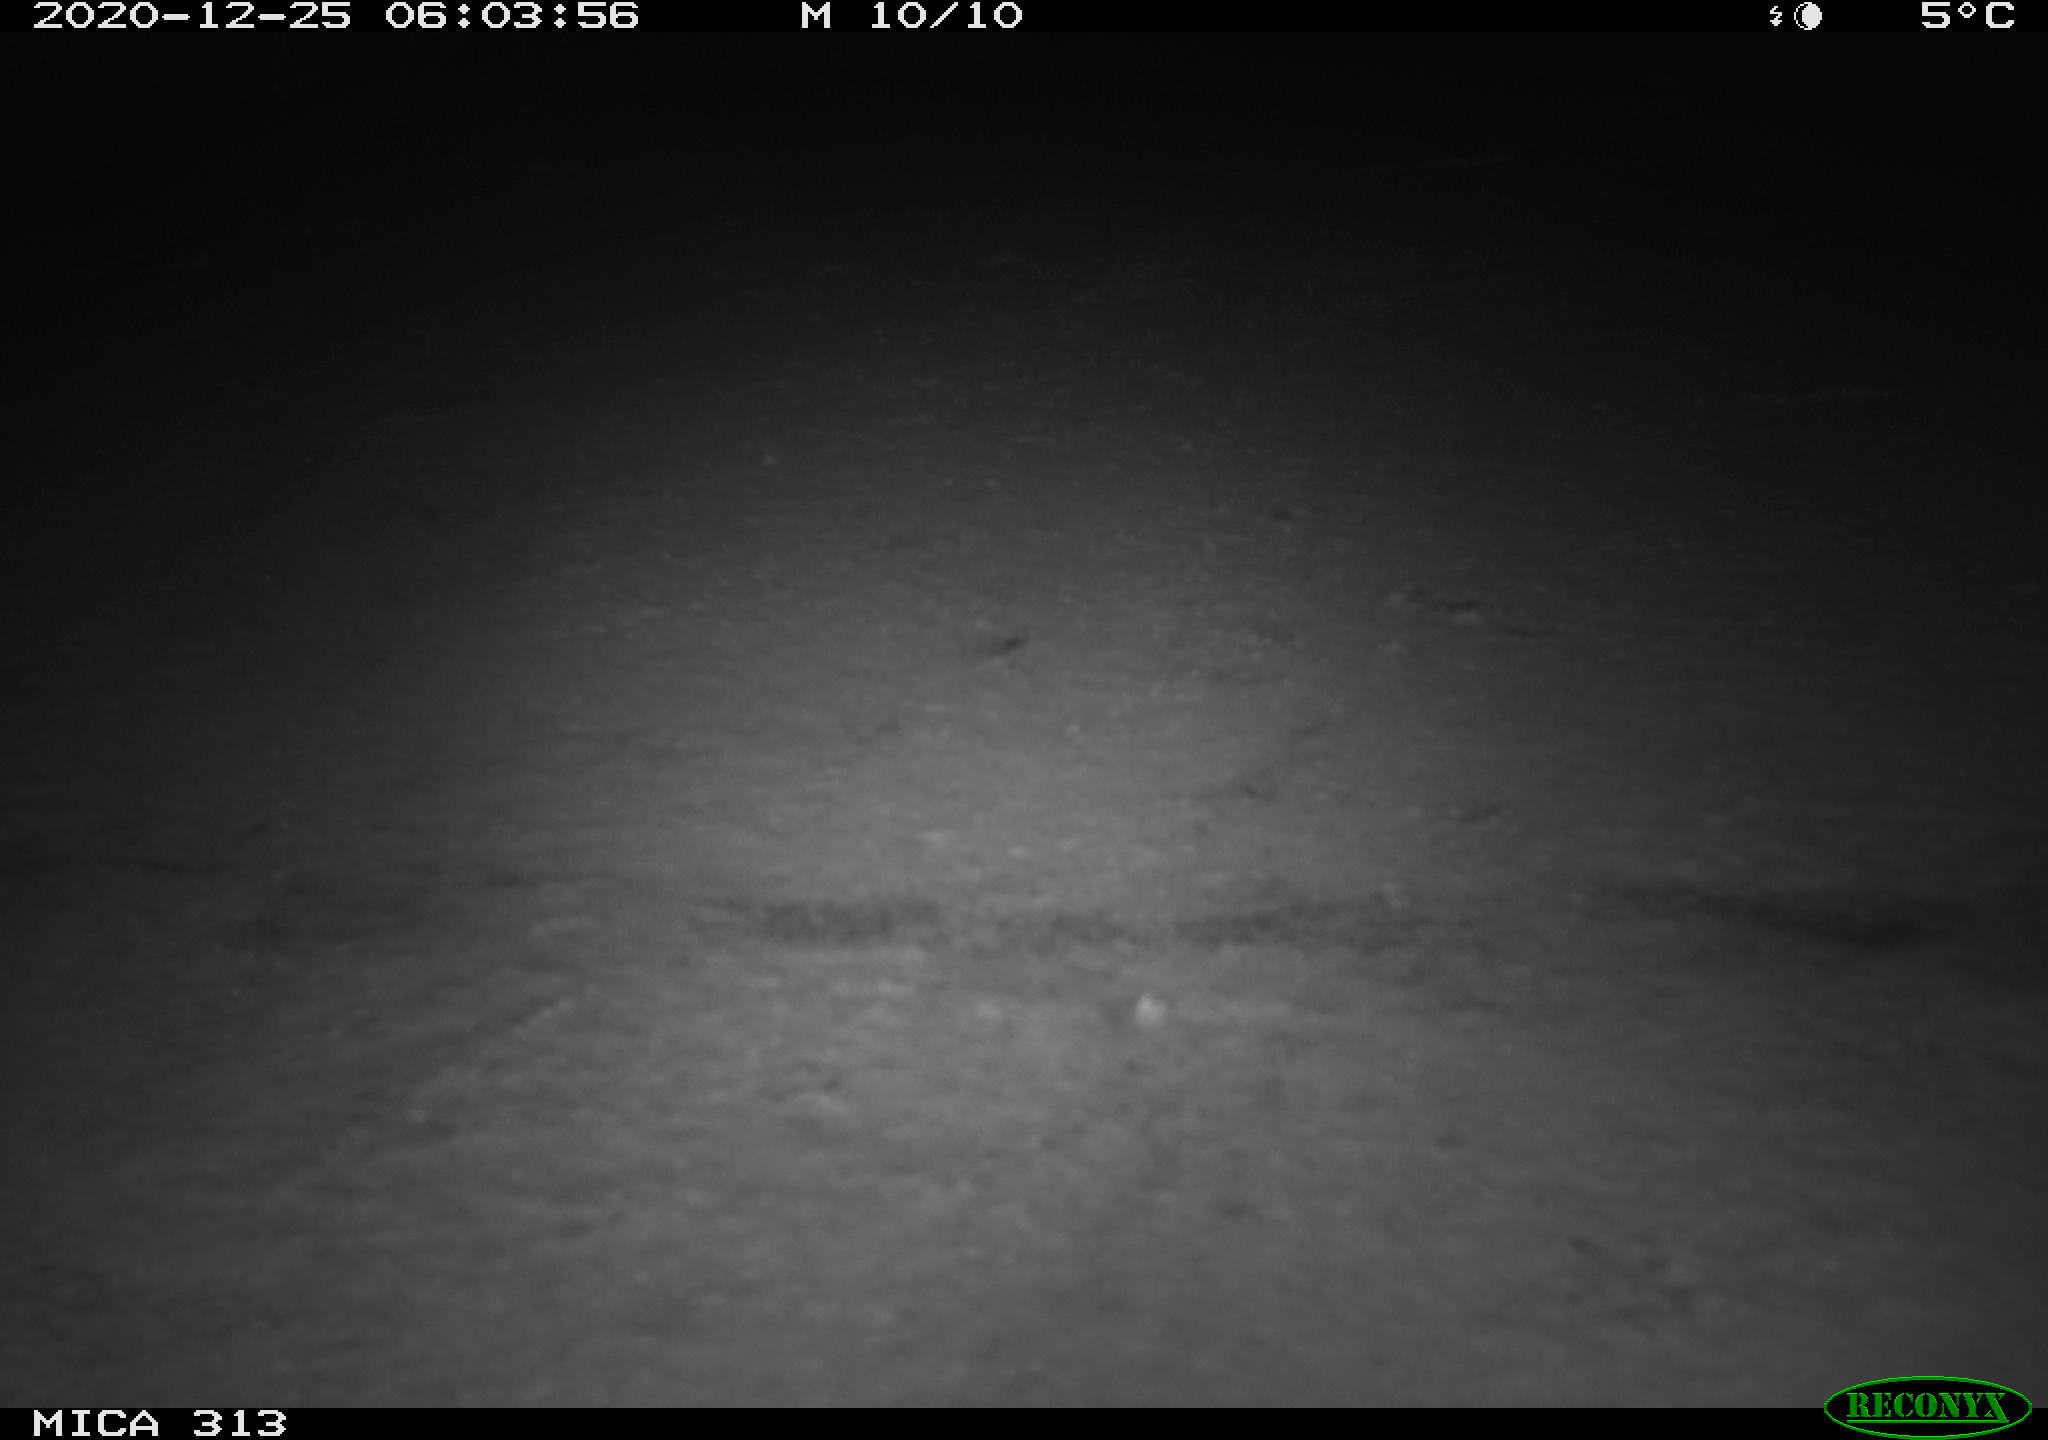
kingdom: Animalia
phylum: Chordata
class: Mammalia
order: Rodentia
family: Cricetidae
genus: Ondatra
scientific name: Ondatra zibethicus
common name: Muskrat
